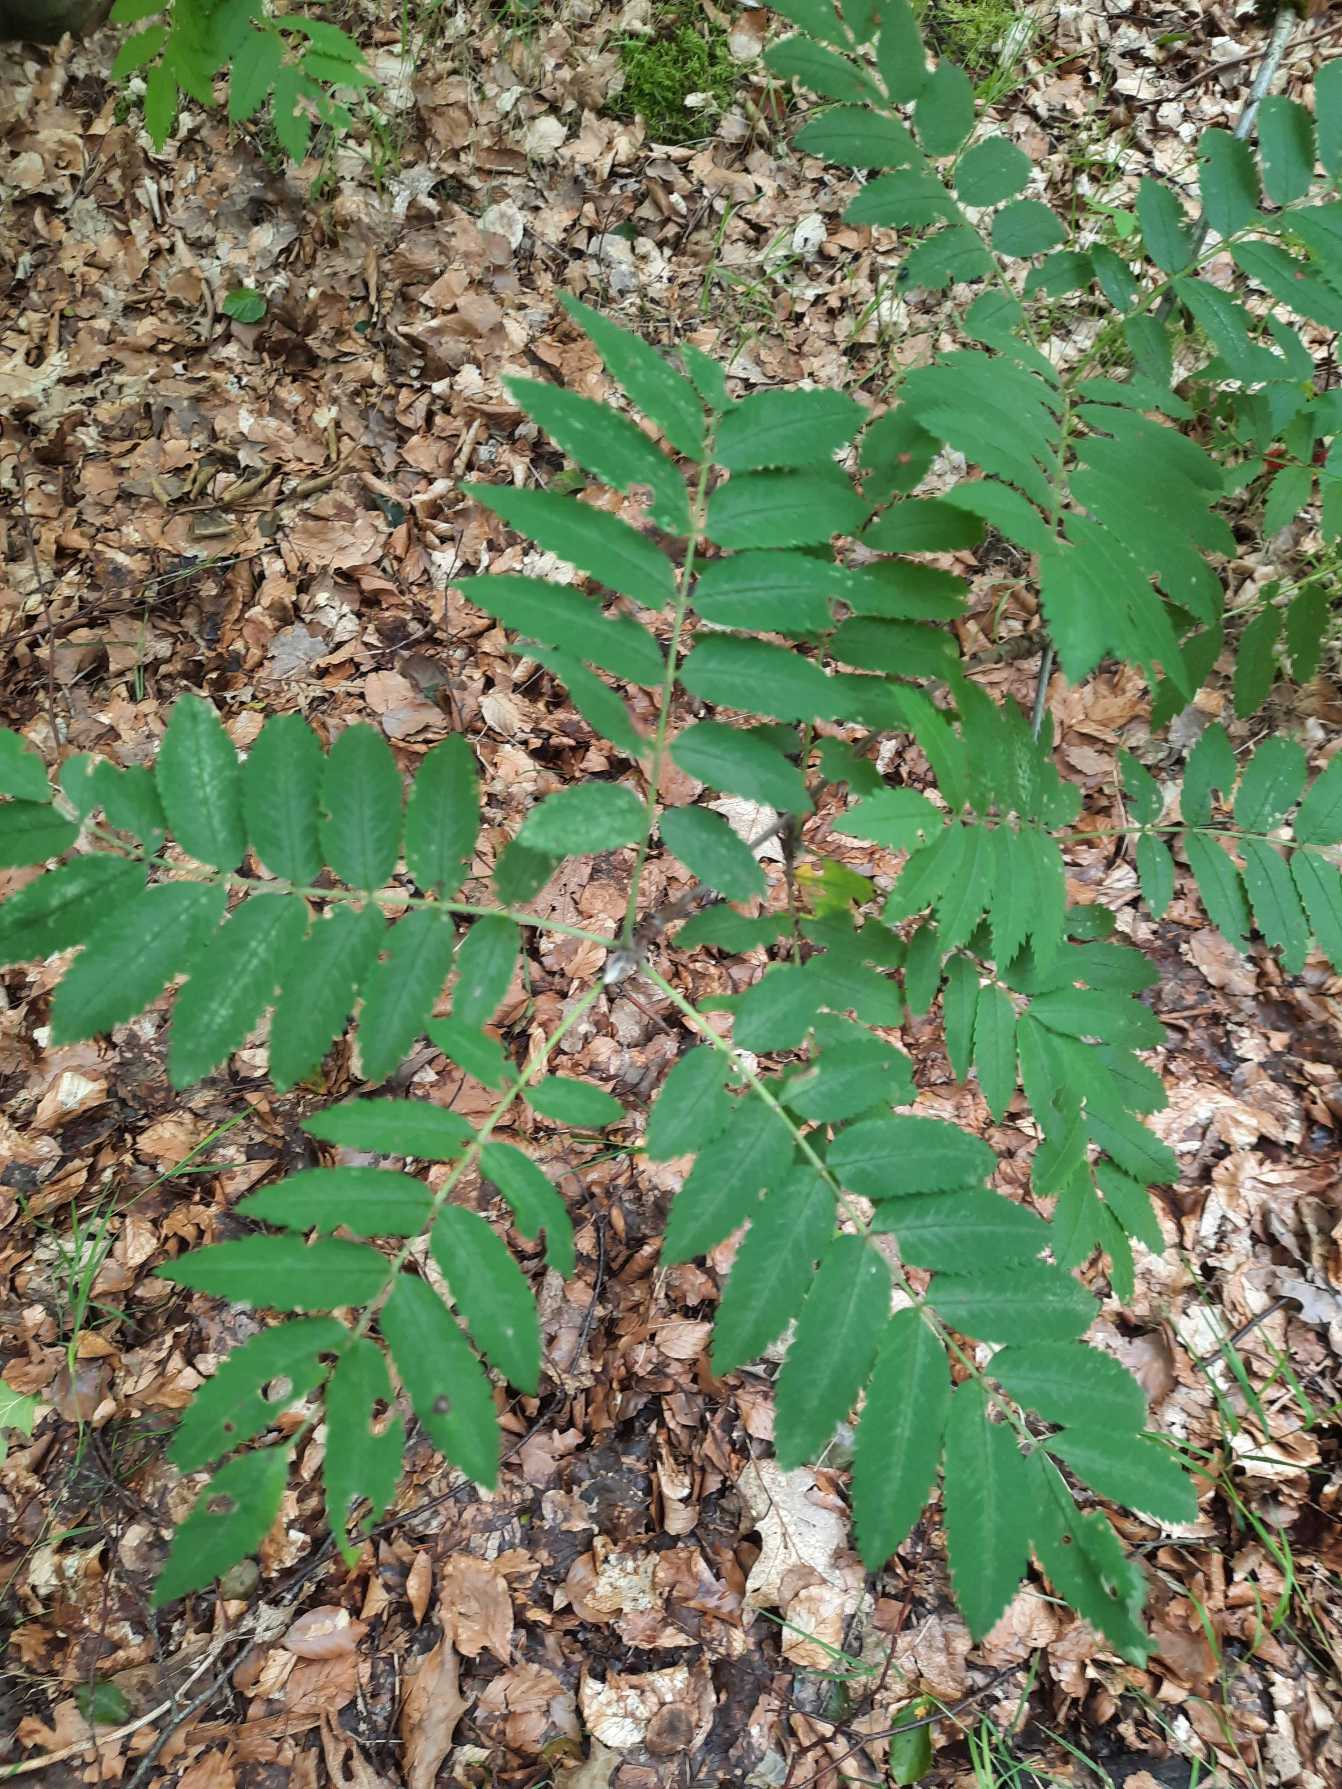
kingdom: Plantae
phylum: Tracheophyta
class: Magnoliopsida
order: Rosales
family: Rosaceae
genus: Sorbus
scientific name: Sorbus aucuparia
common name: Almindelig røn
